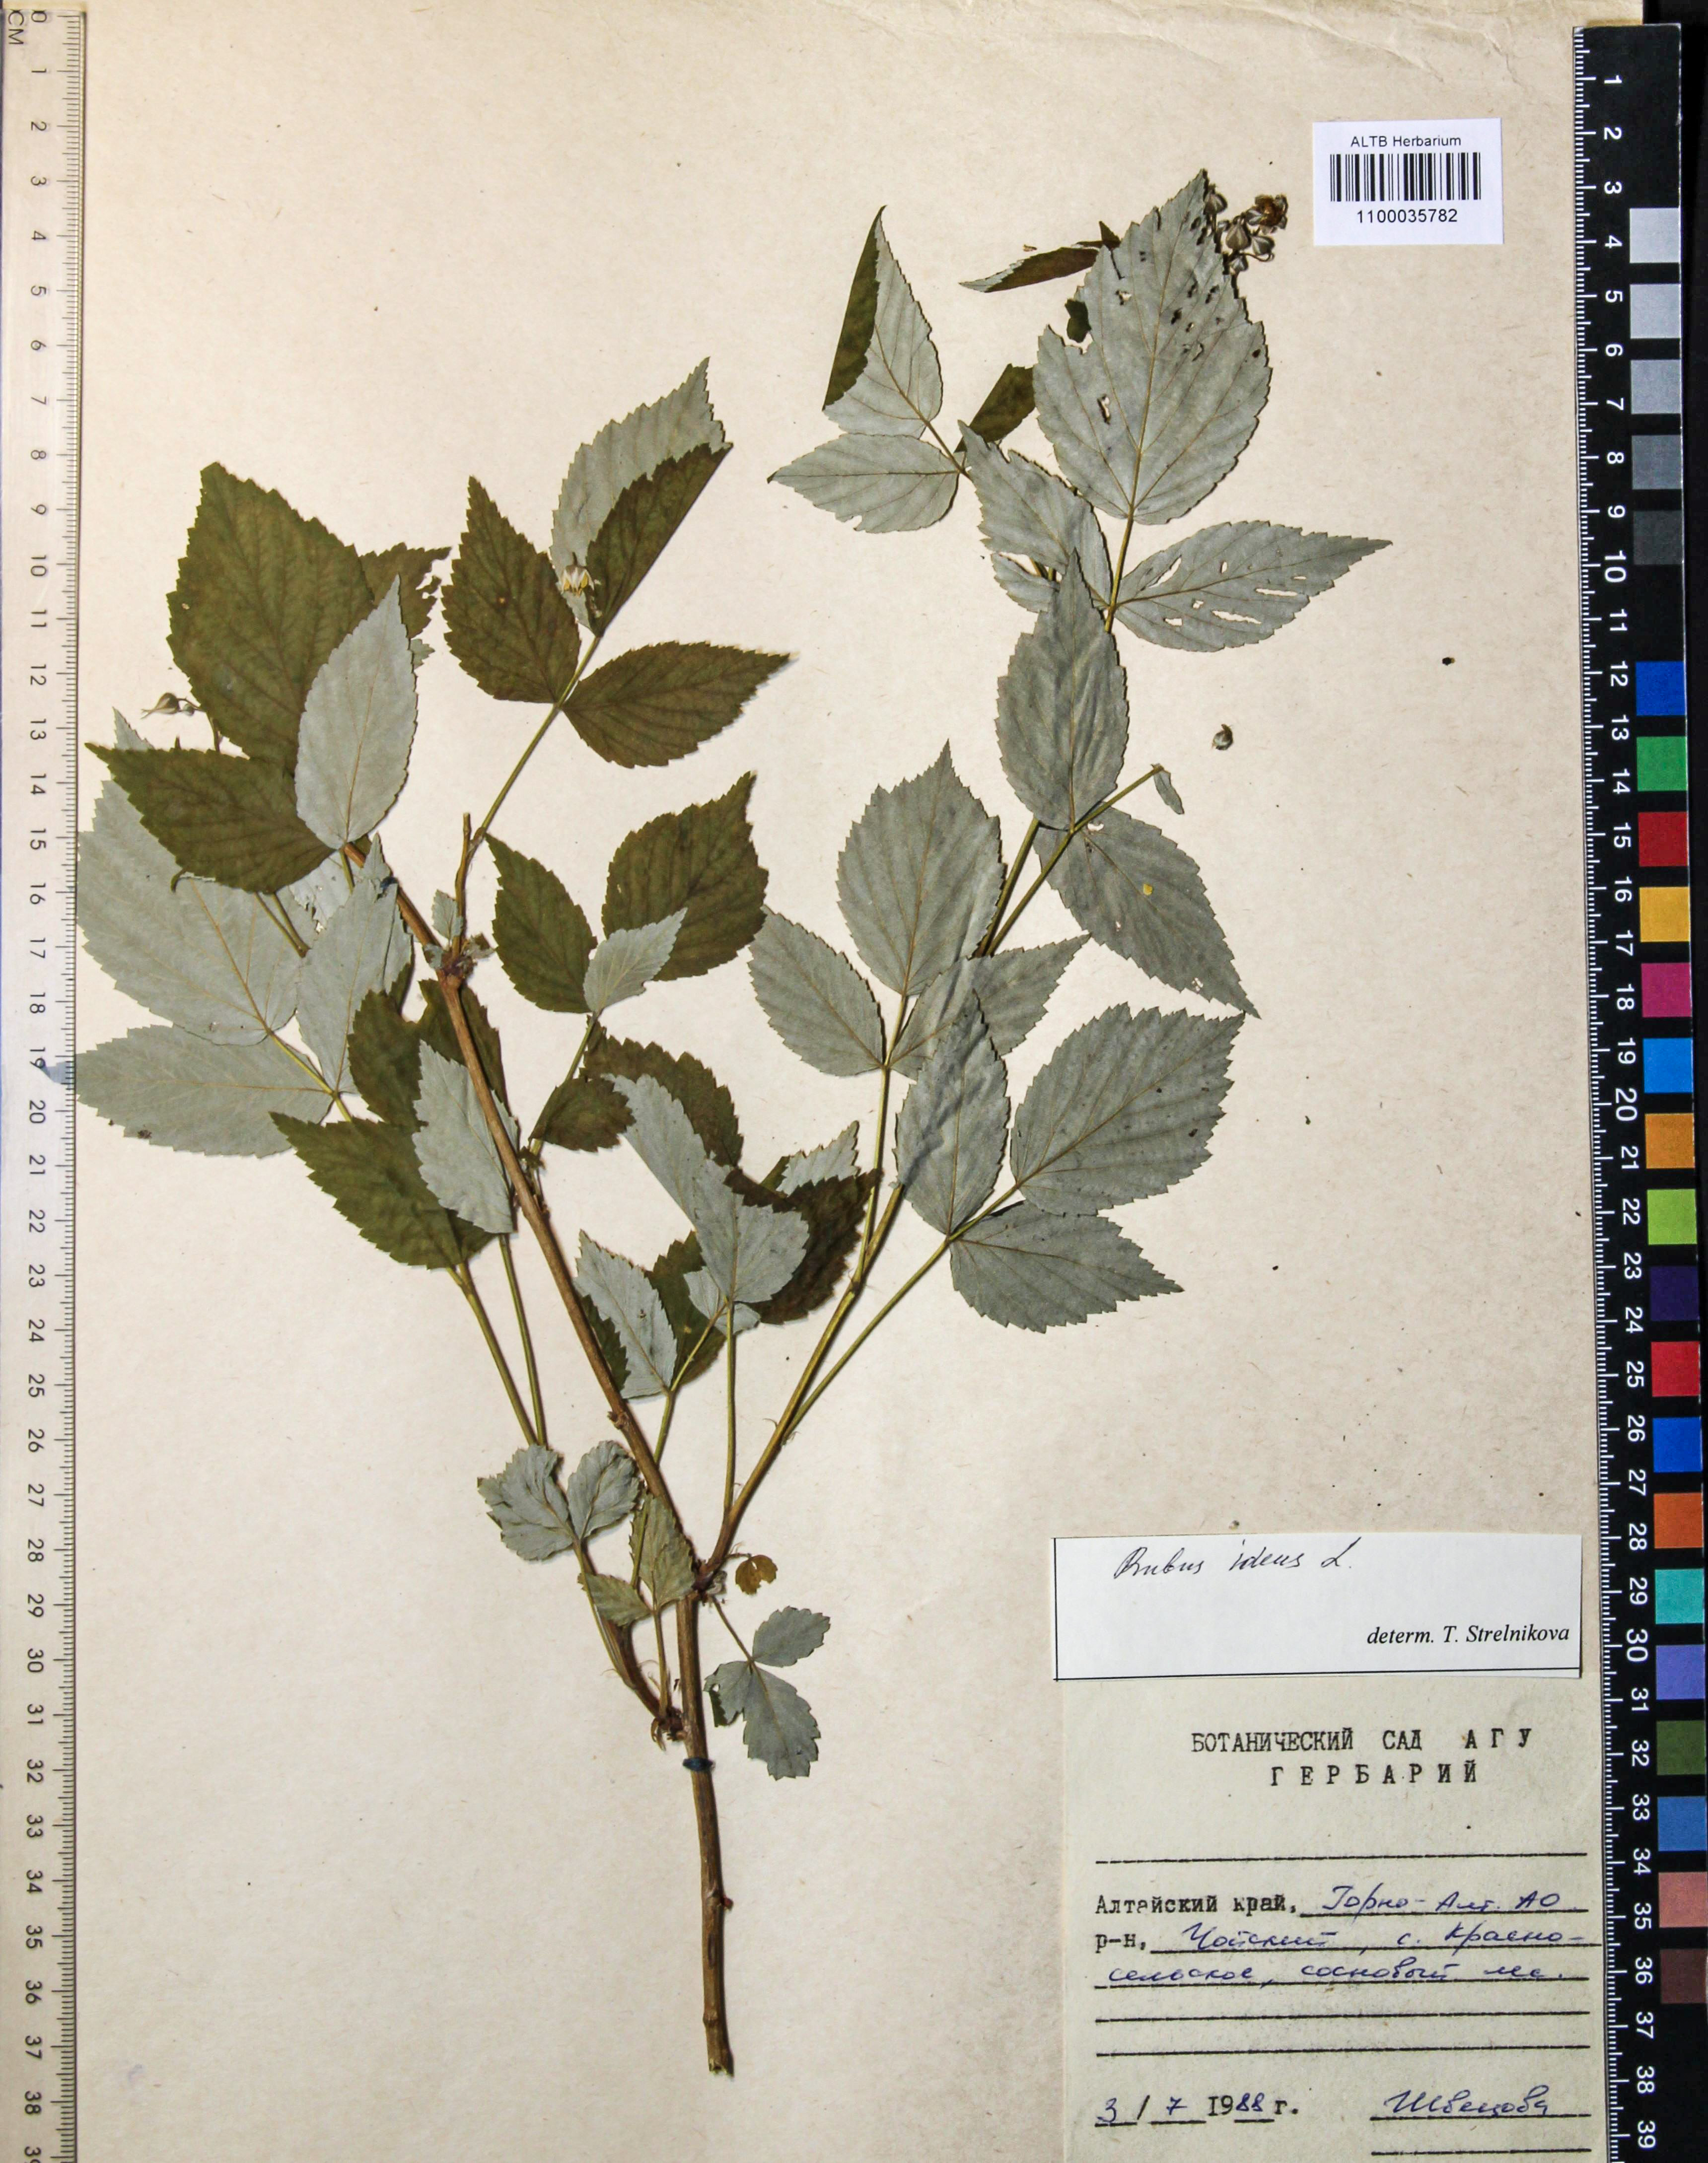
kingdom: Plantae
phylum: Tracheophyta
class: Magnoliopsida
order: Rosales
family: Rosaceae
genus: Rubus
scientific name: Rubus idaeus
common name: Raspberry
